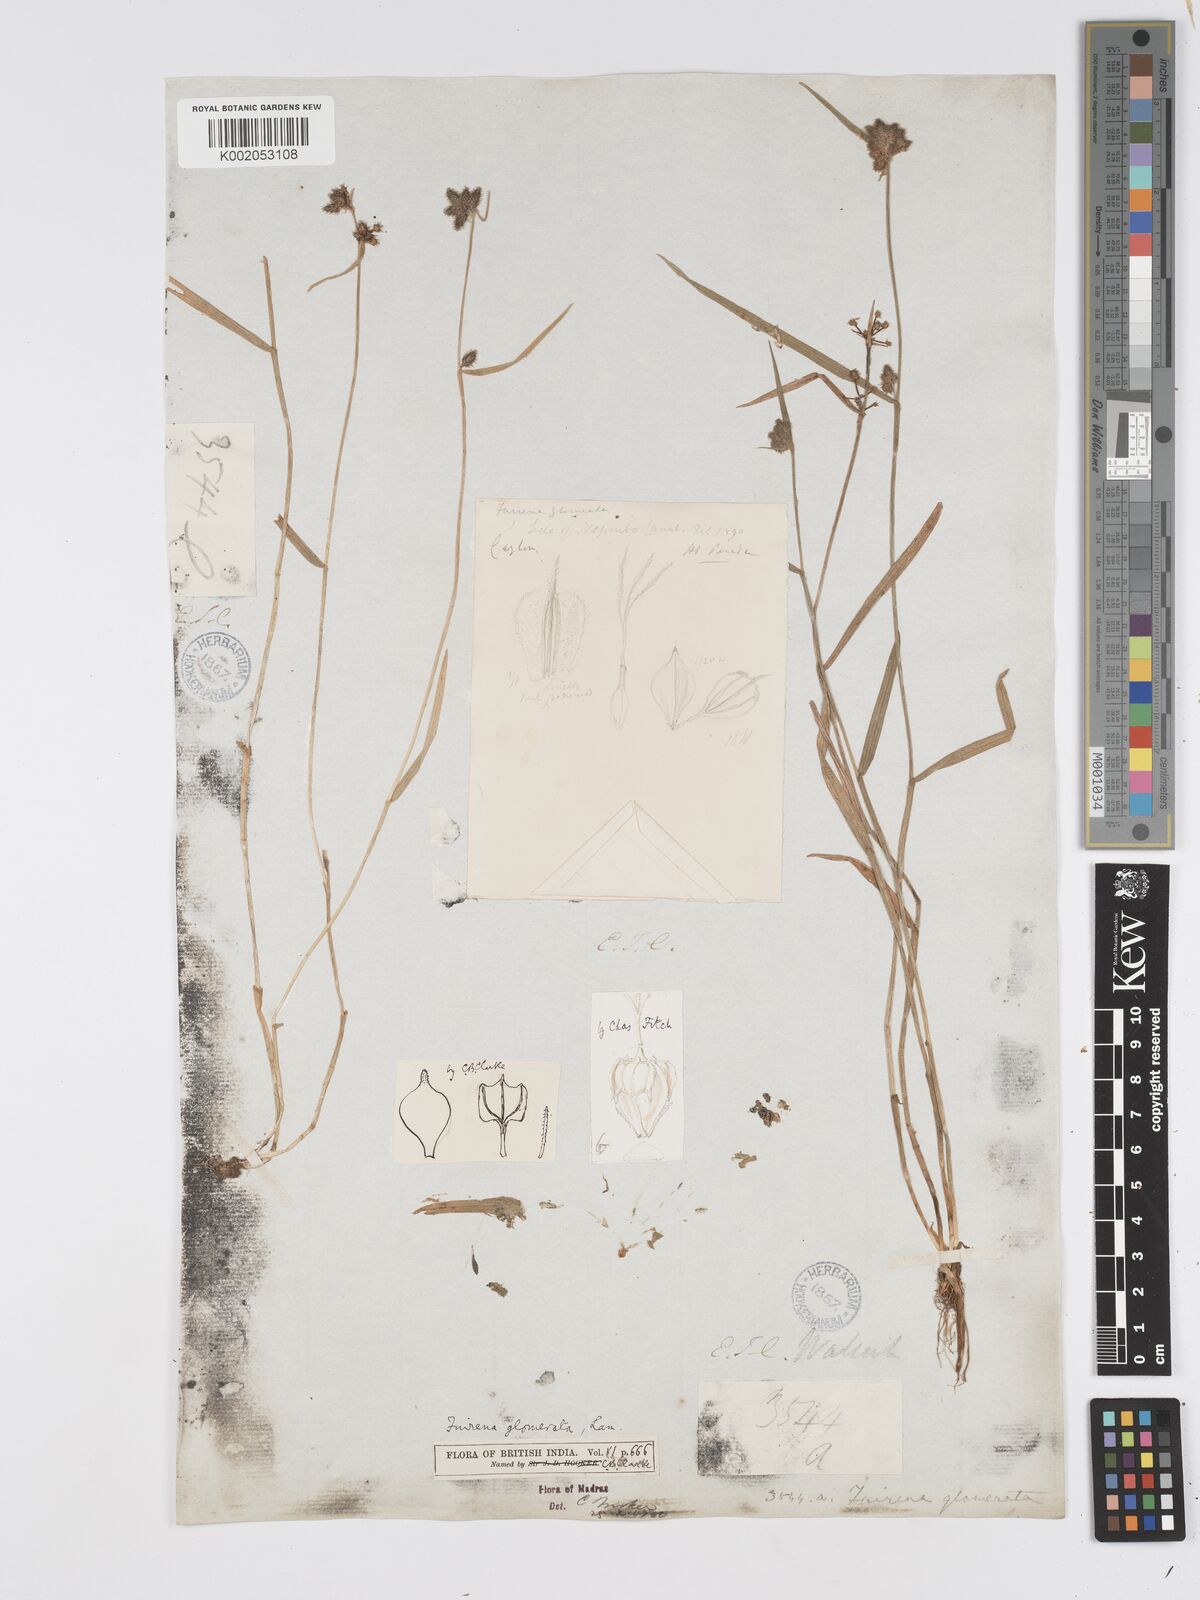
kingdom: Plantae
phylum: Tracheophyta
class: Liliopsida
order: Poales
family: Cyperaceae
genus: Fuirena
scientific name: Fuirena ciliaris
